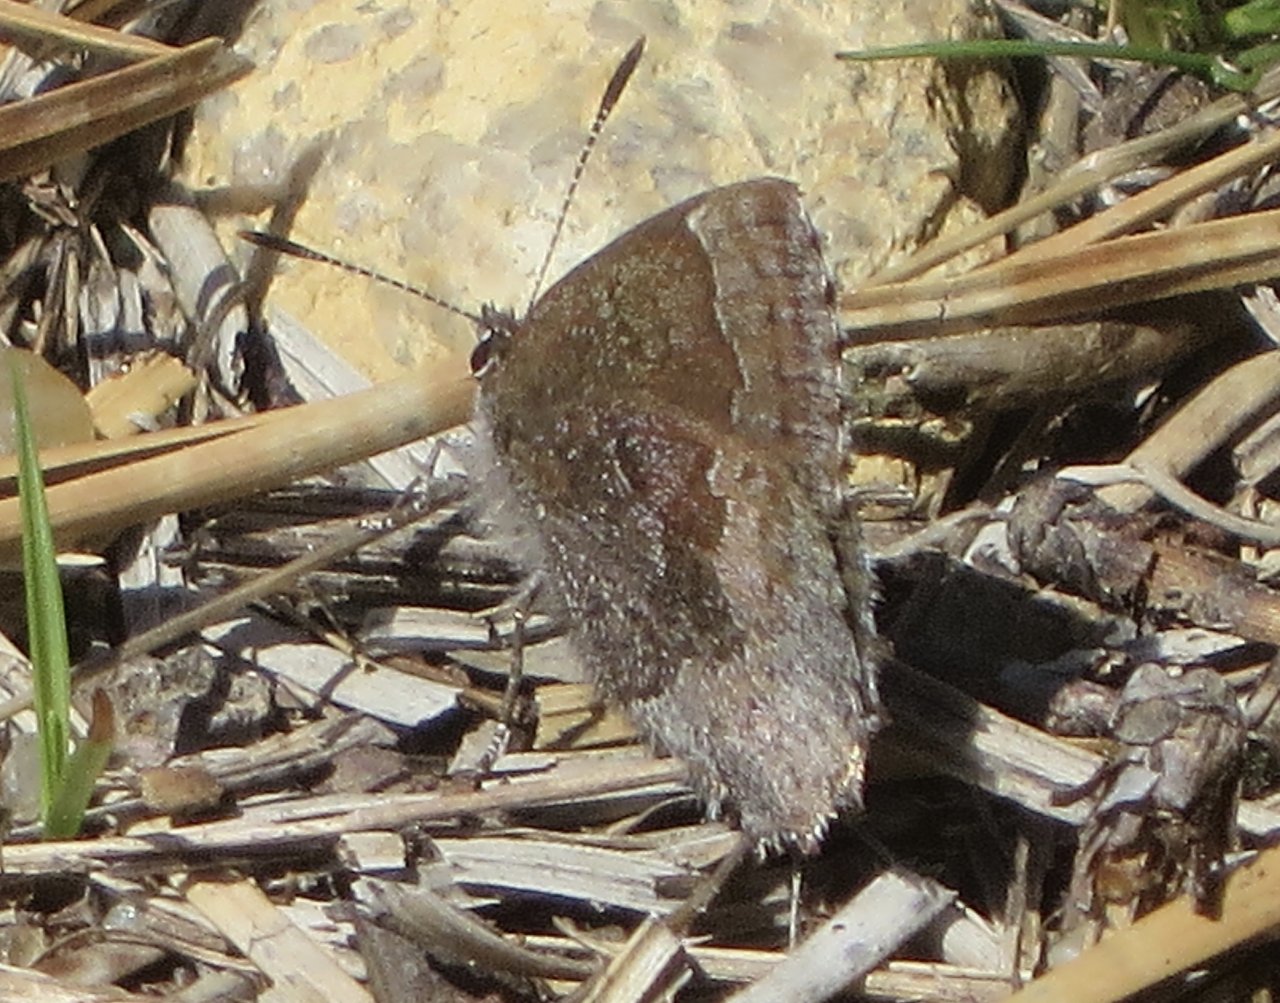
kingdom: Animalia
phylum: Arthropoda
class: Insecta
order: Lepidoptera
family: Lycaenidae
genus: Callophrys
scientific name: Callophrys polios
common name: Hoary Elfin
